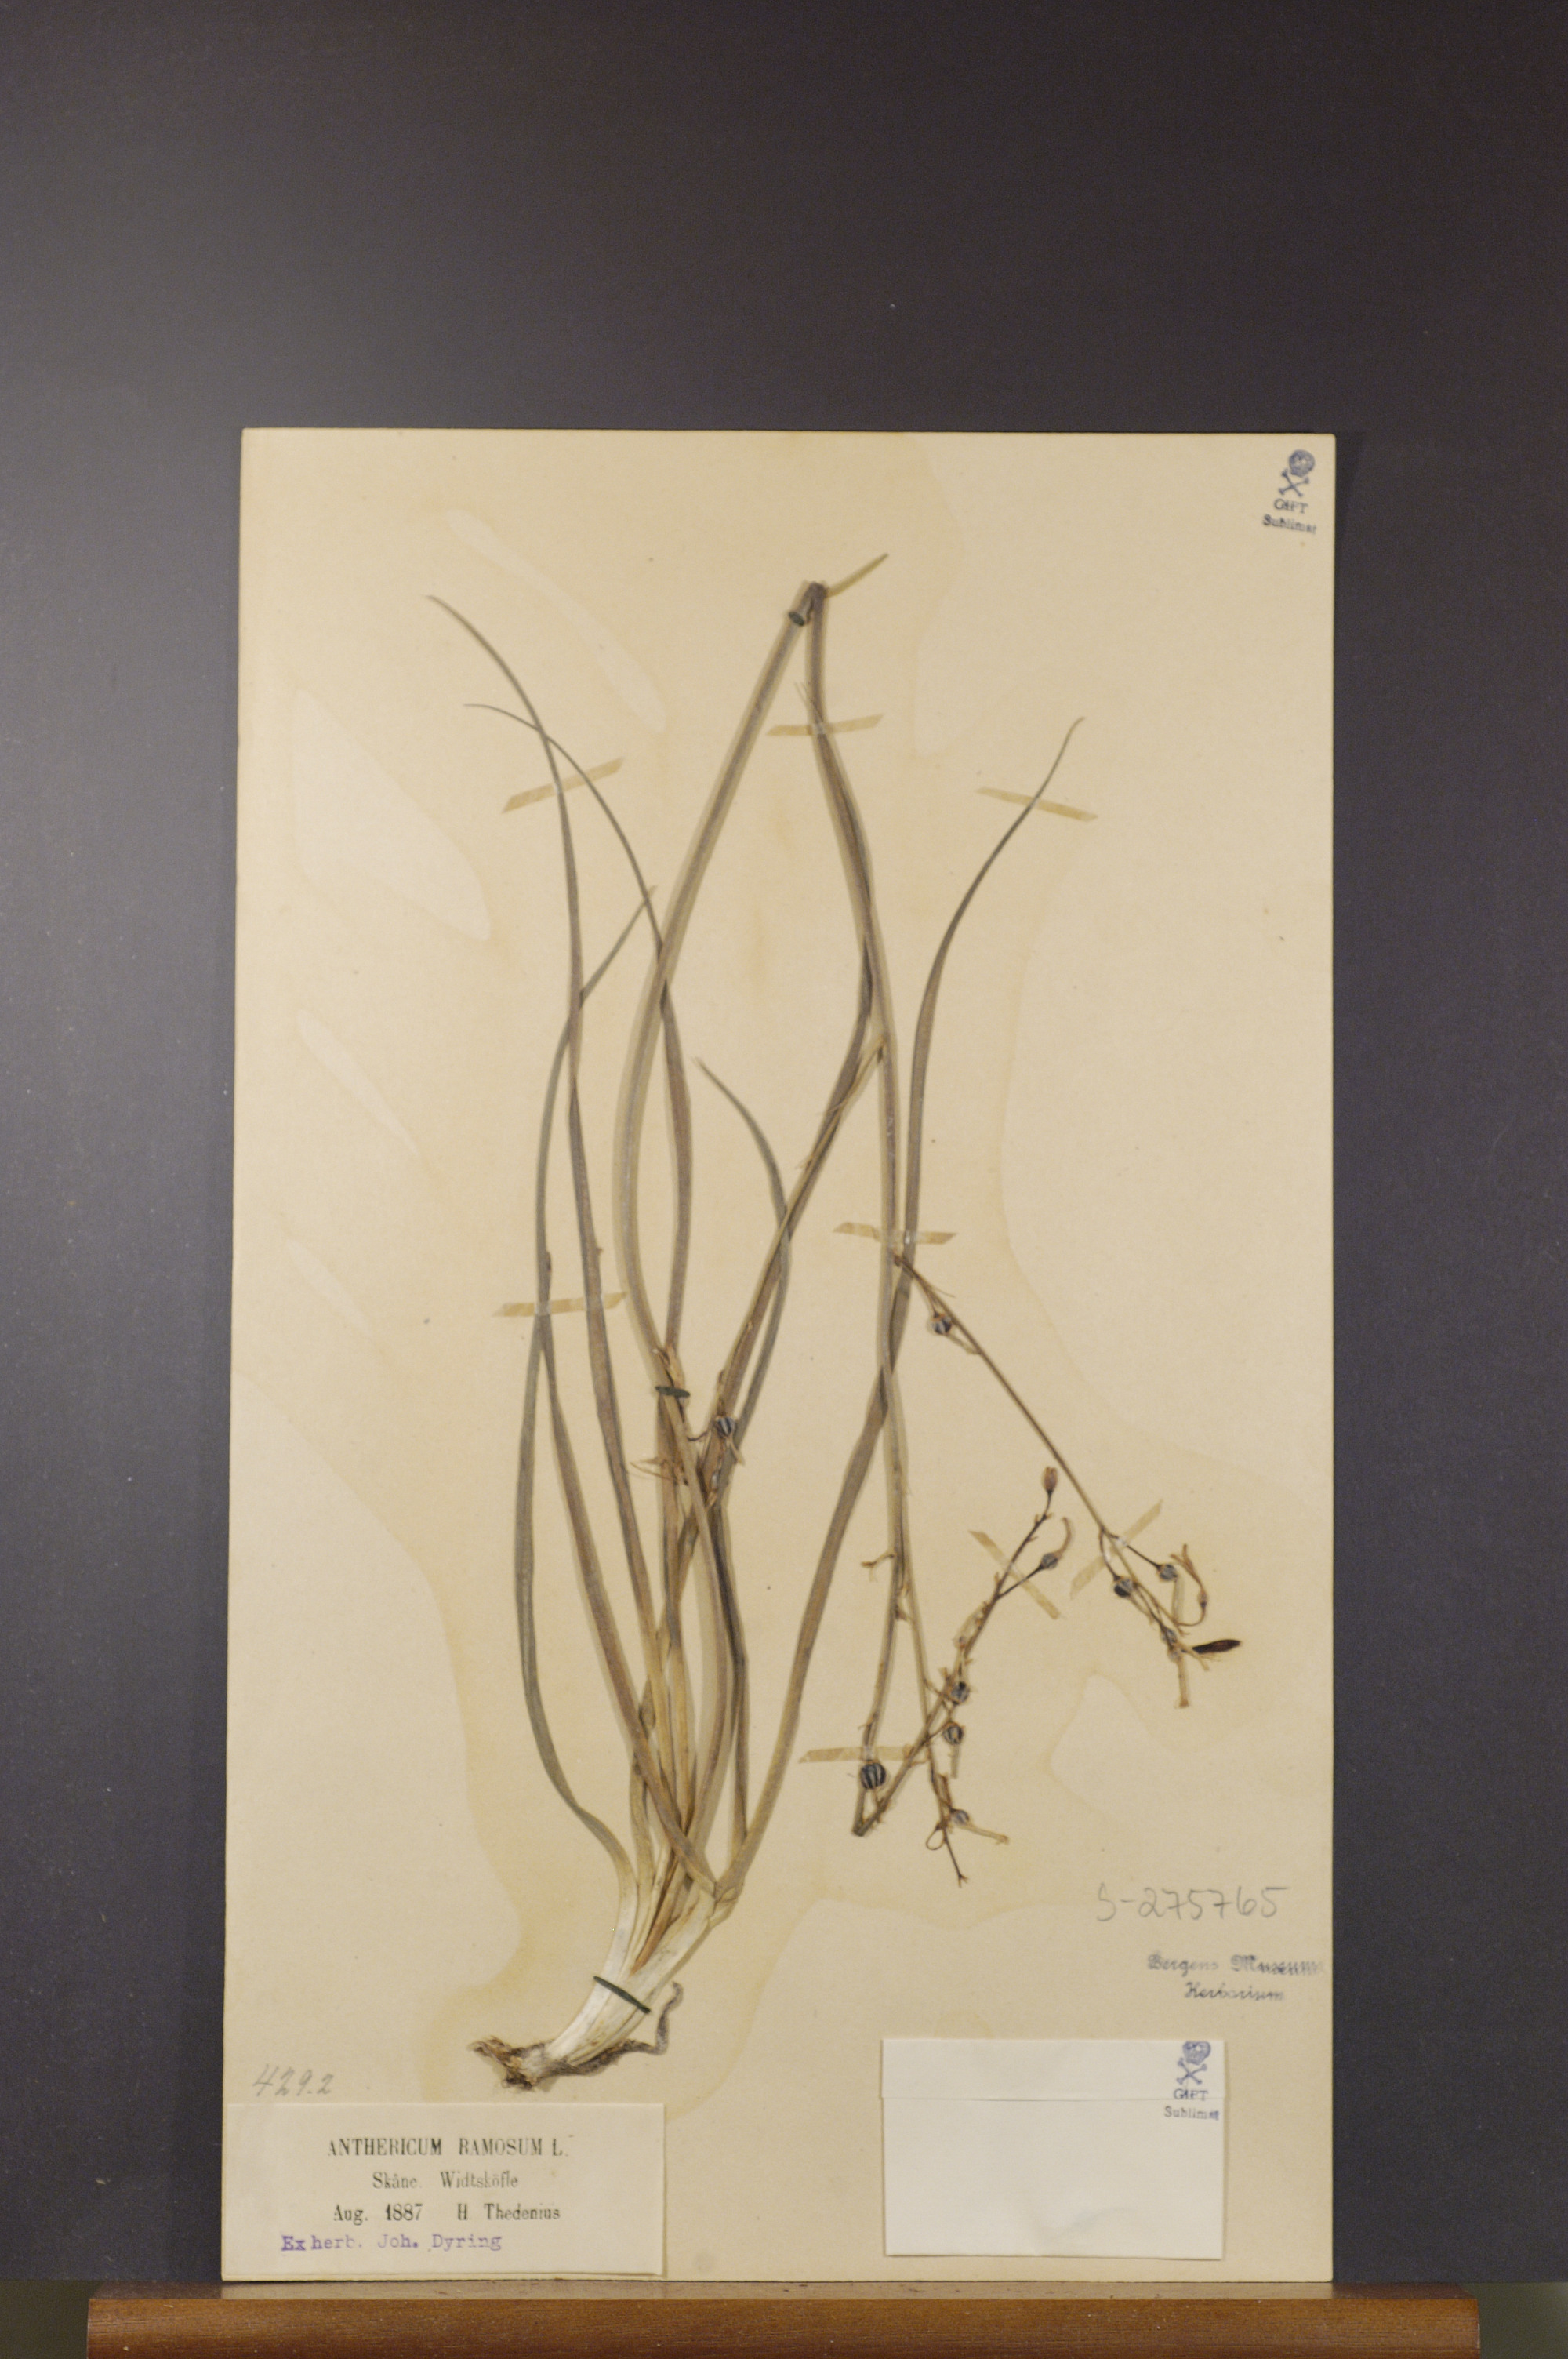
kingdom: Plantae
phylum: Tracheophyta
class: Liliopsida
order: Asparagales
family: Asparagaceae
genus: Anthericum
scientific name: Anthericum ramosum
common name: Branched st. bernard's-lily
